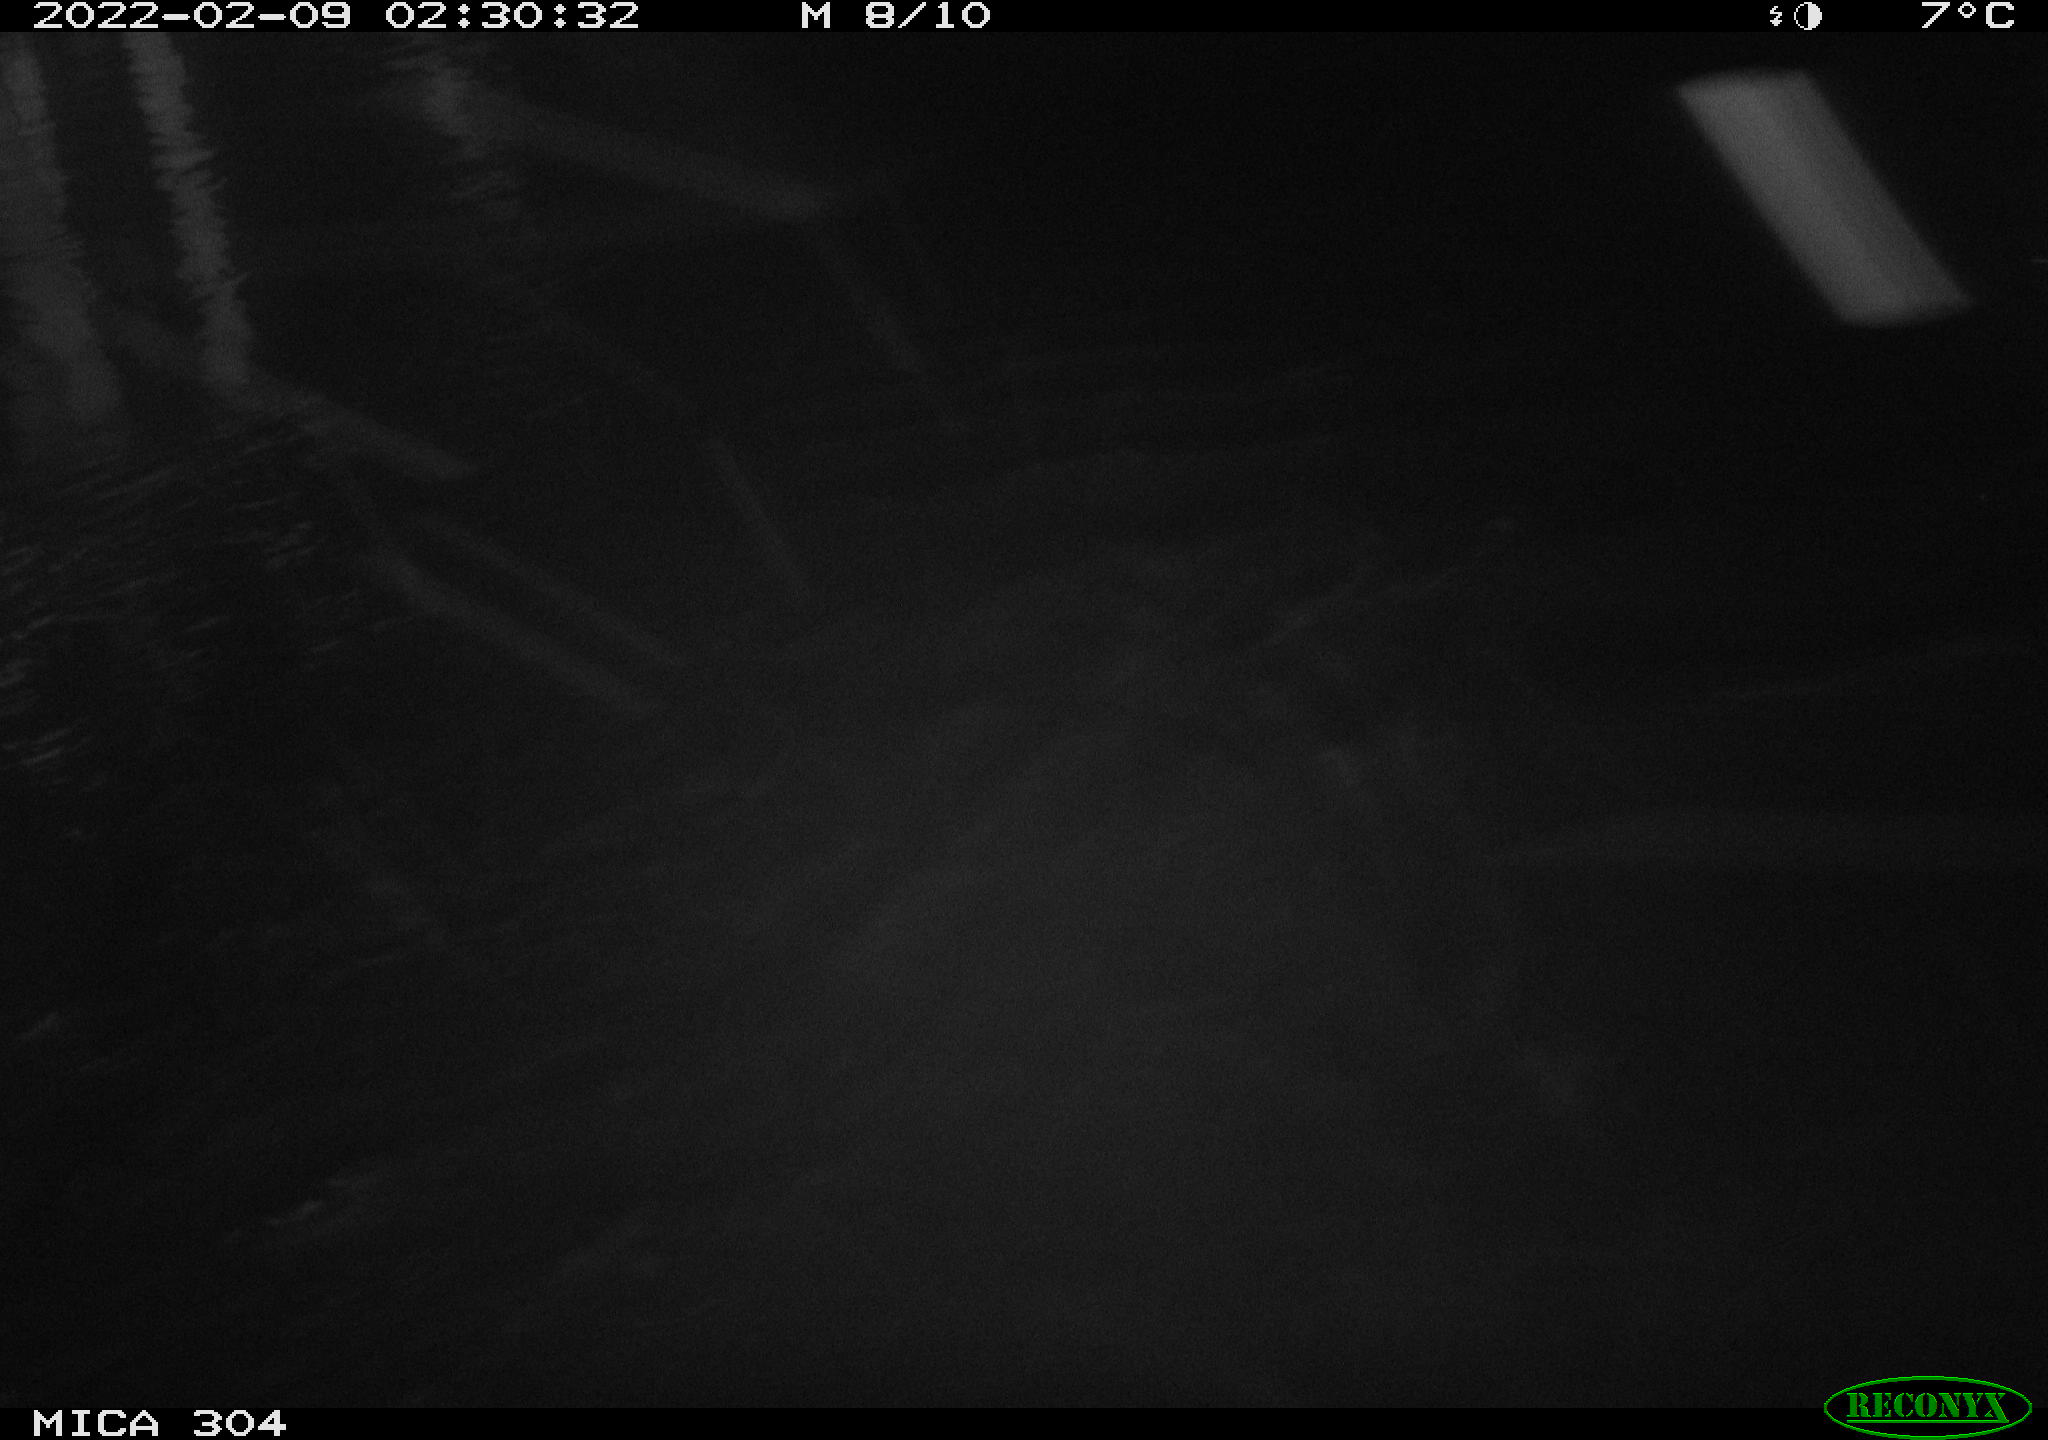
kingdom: Animalia
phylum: Chordata
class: Mammalia
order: Rodentia
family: Cricetidae
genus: Ondatra
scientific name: Ondatra zibethicus
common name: Muskrat
